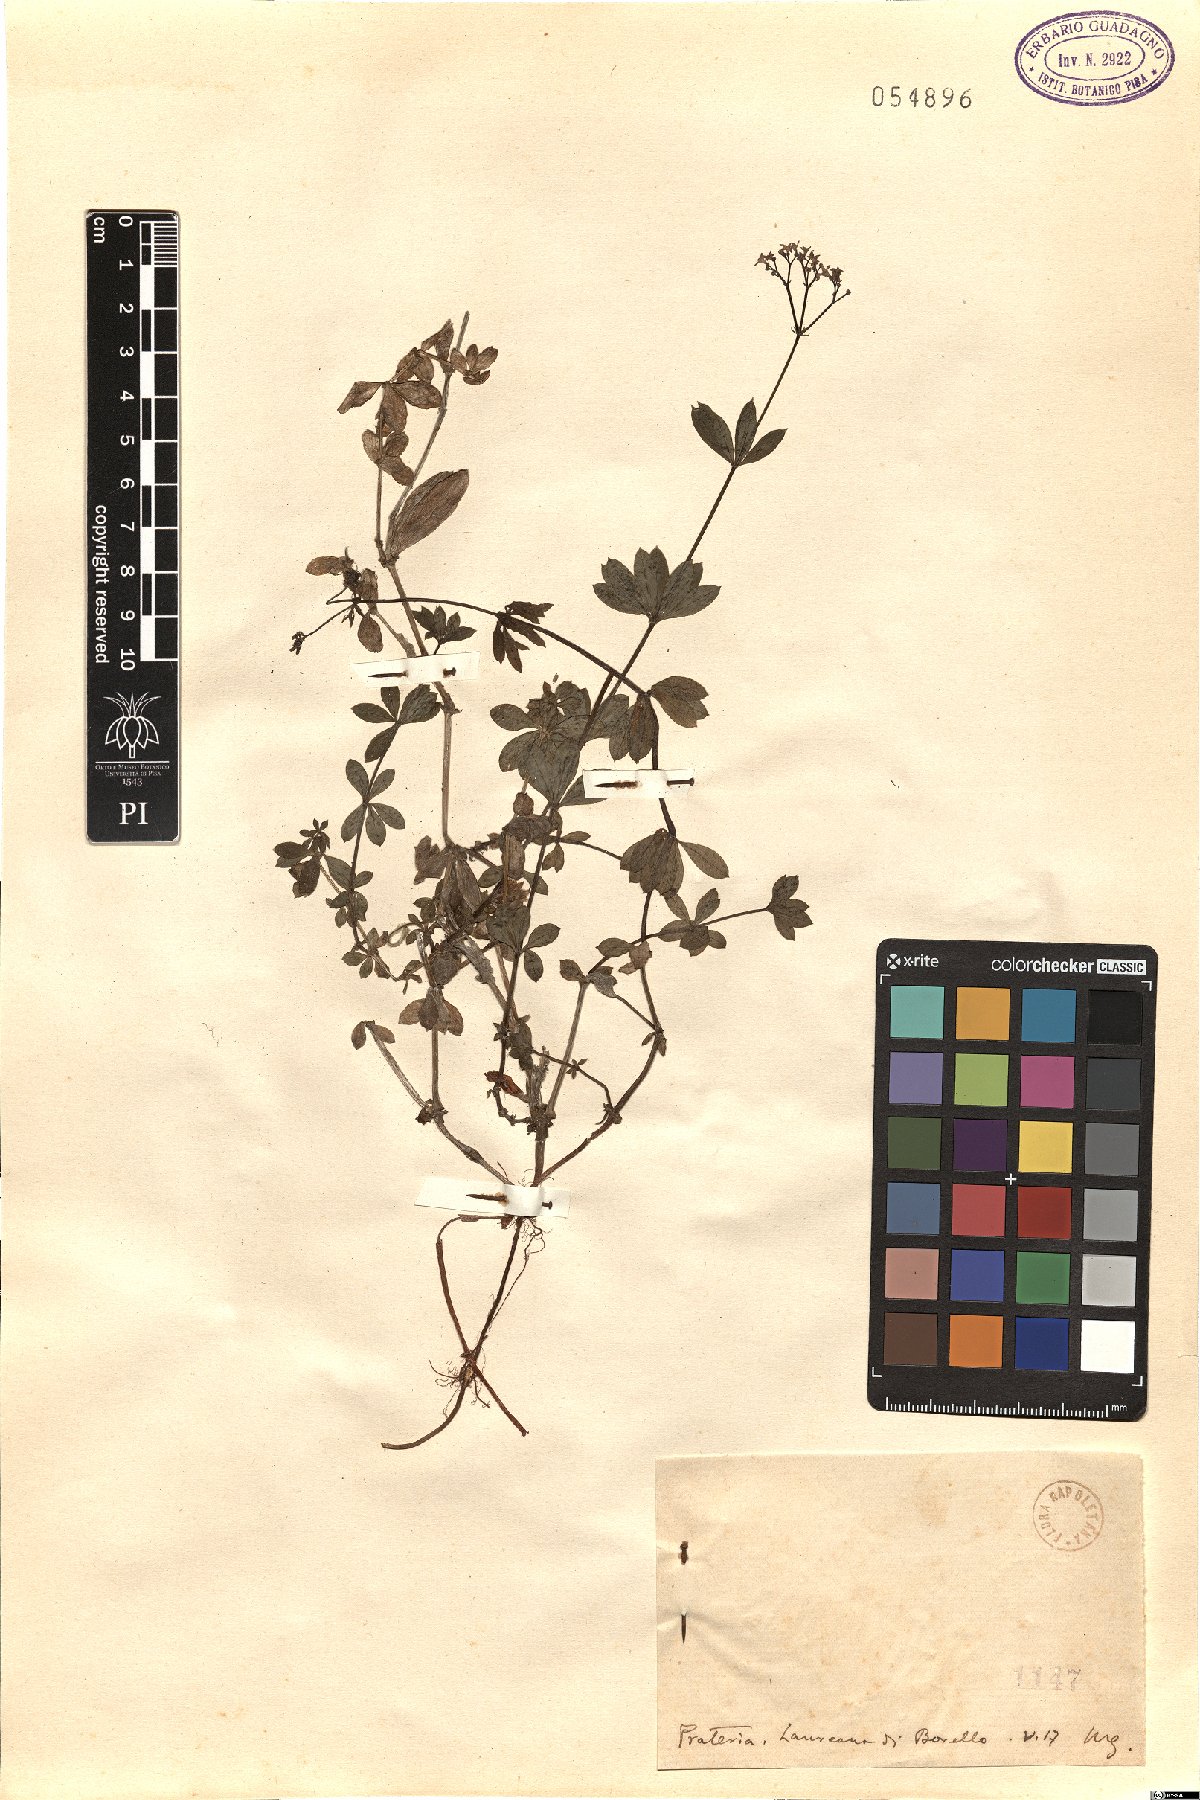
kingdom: Plantae
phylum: Tracheophyta
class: Magnoliopsida
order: Gentianales
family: Rubiaceae
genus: Asperula
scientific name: Asperula
